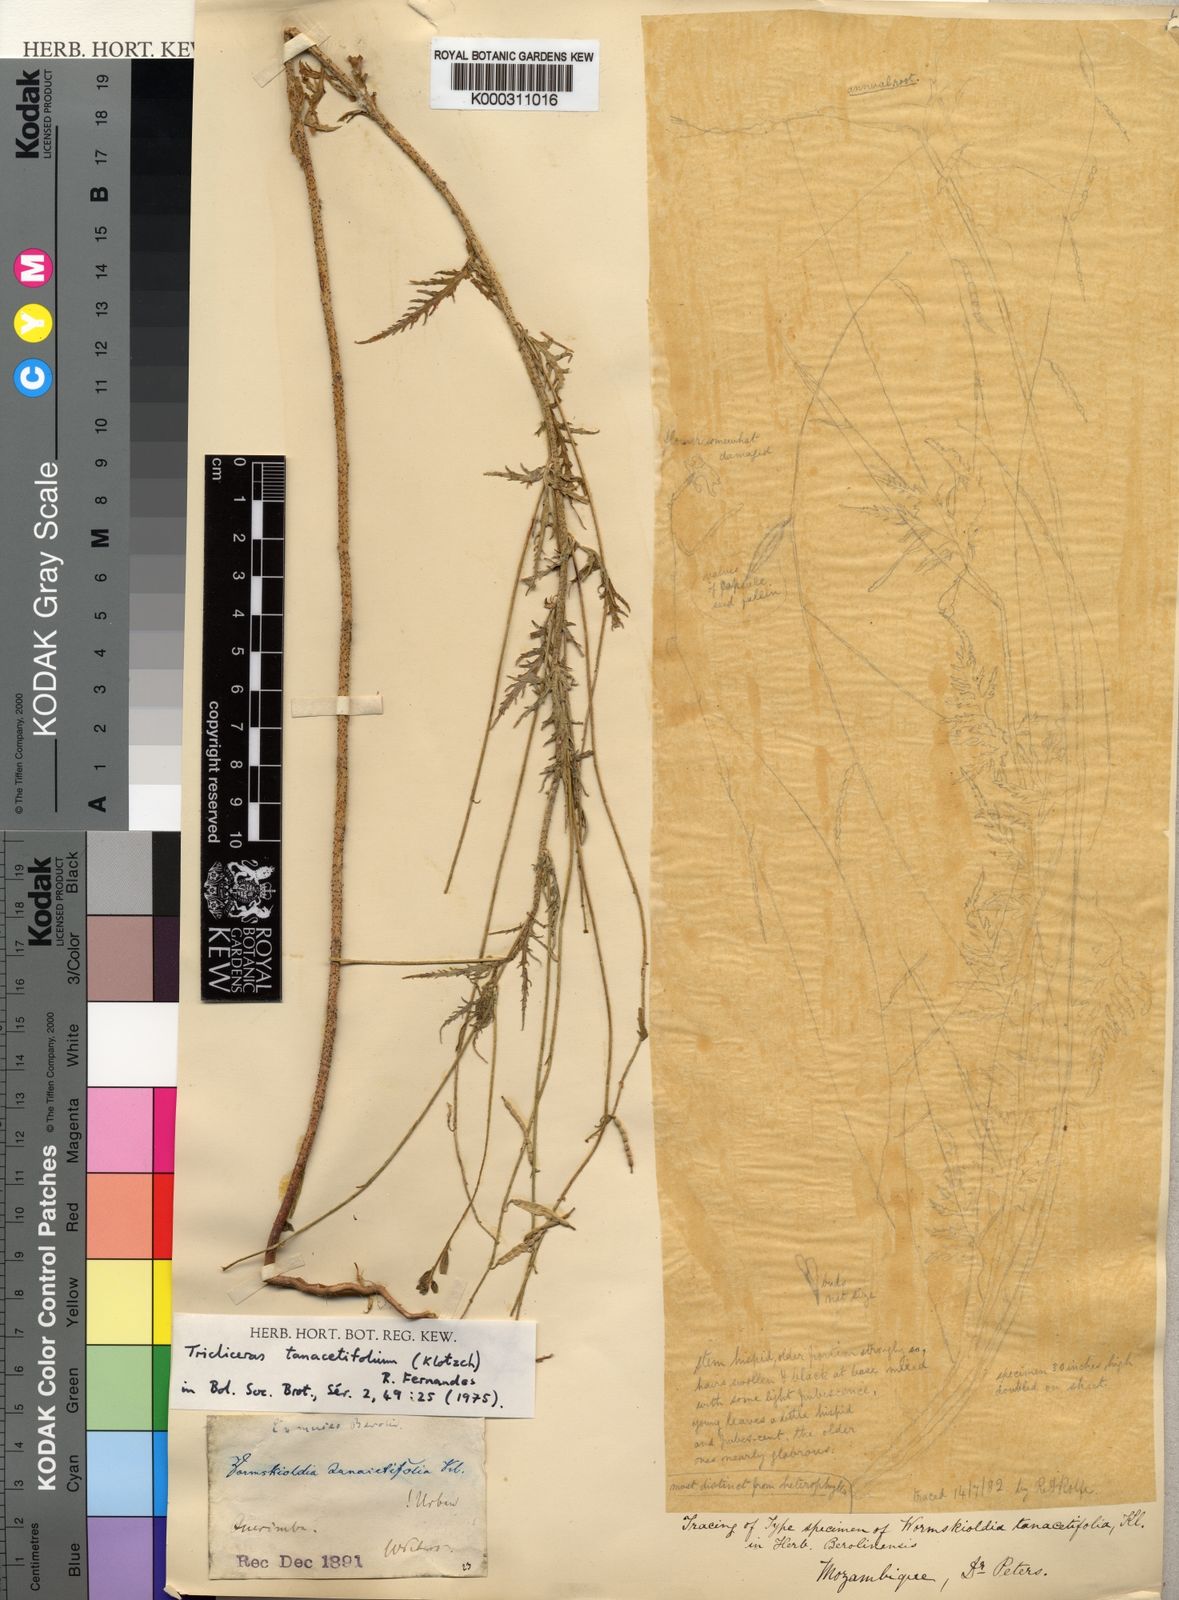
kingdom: Plantae
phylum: Tracheophyta
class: Magnoliopsida
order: Malpighiales
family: Turneraceae
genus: Tricliceras
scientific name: Tricliceras tanacetifolium
